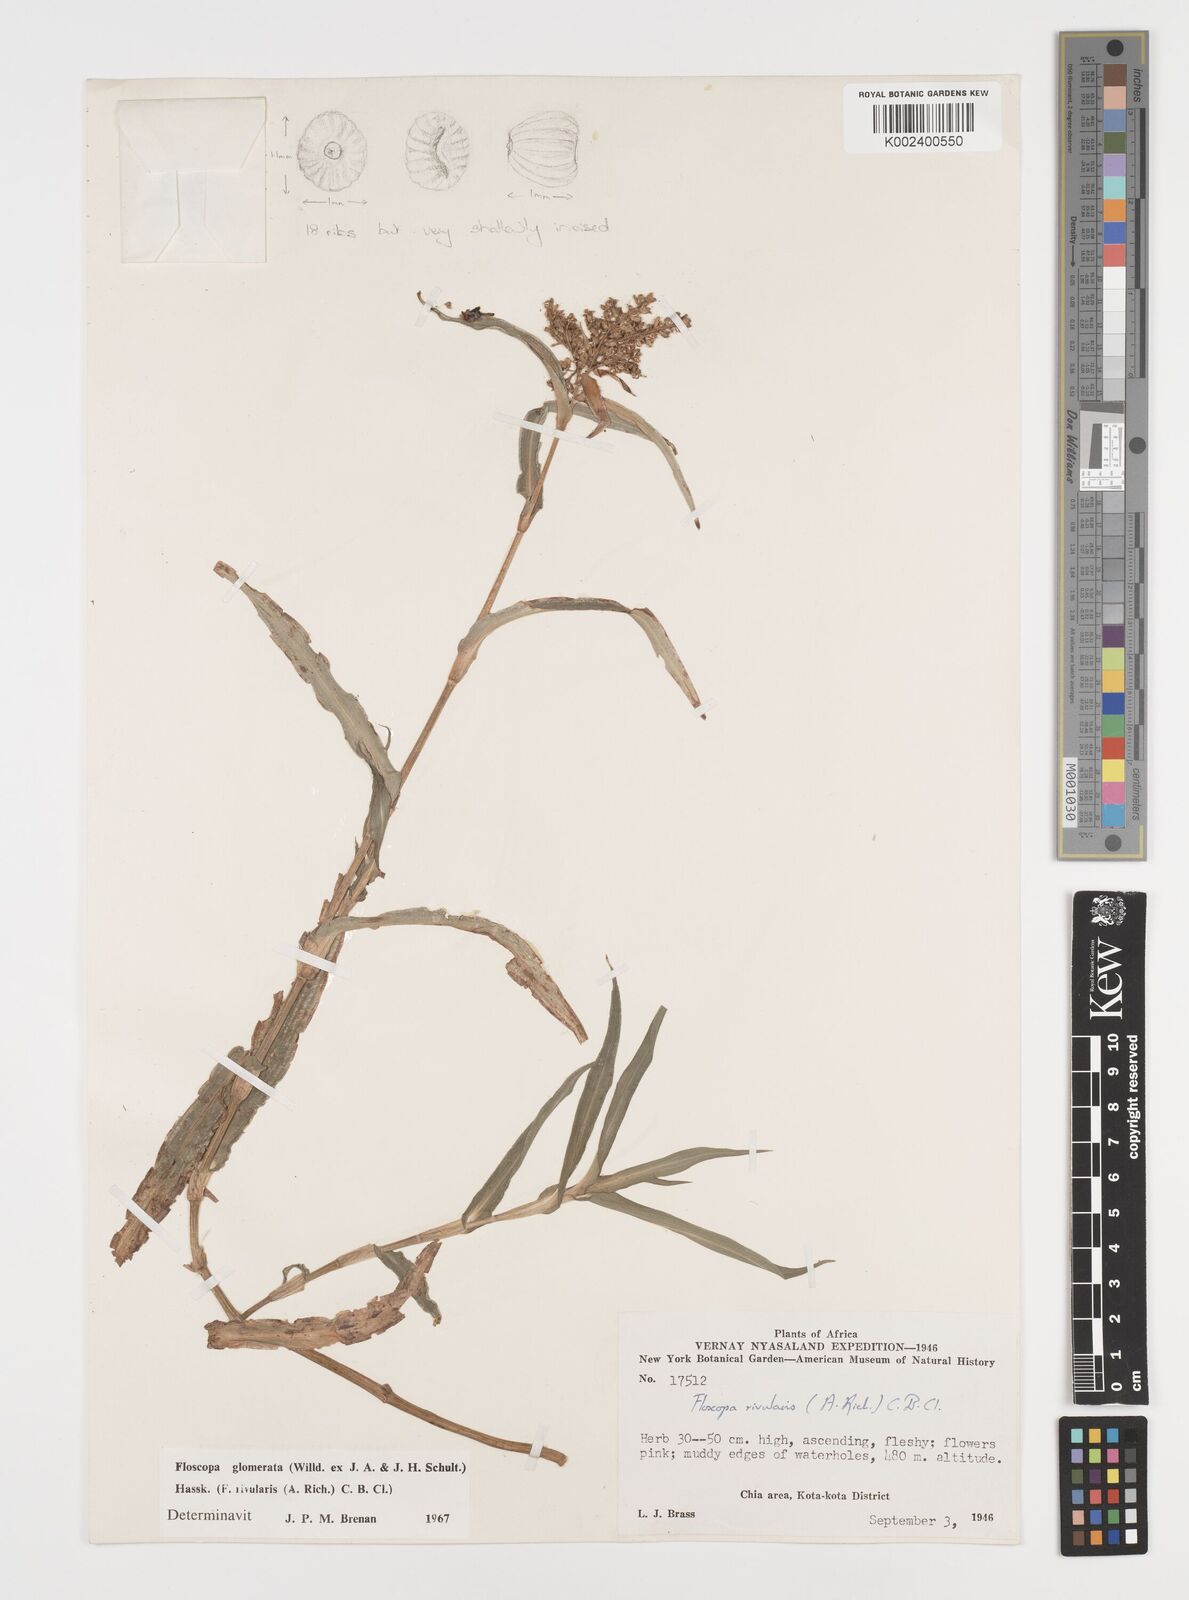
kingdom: Plantae
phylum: Tracheophyta
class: Liliopsida
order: Commelinales
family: Commelinaceae
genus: Floscopa
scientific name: Floscopa glomerata
